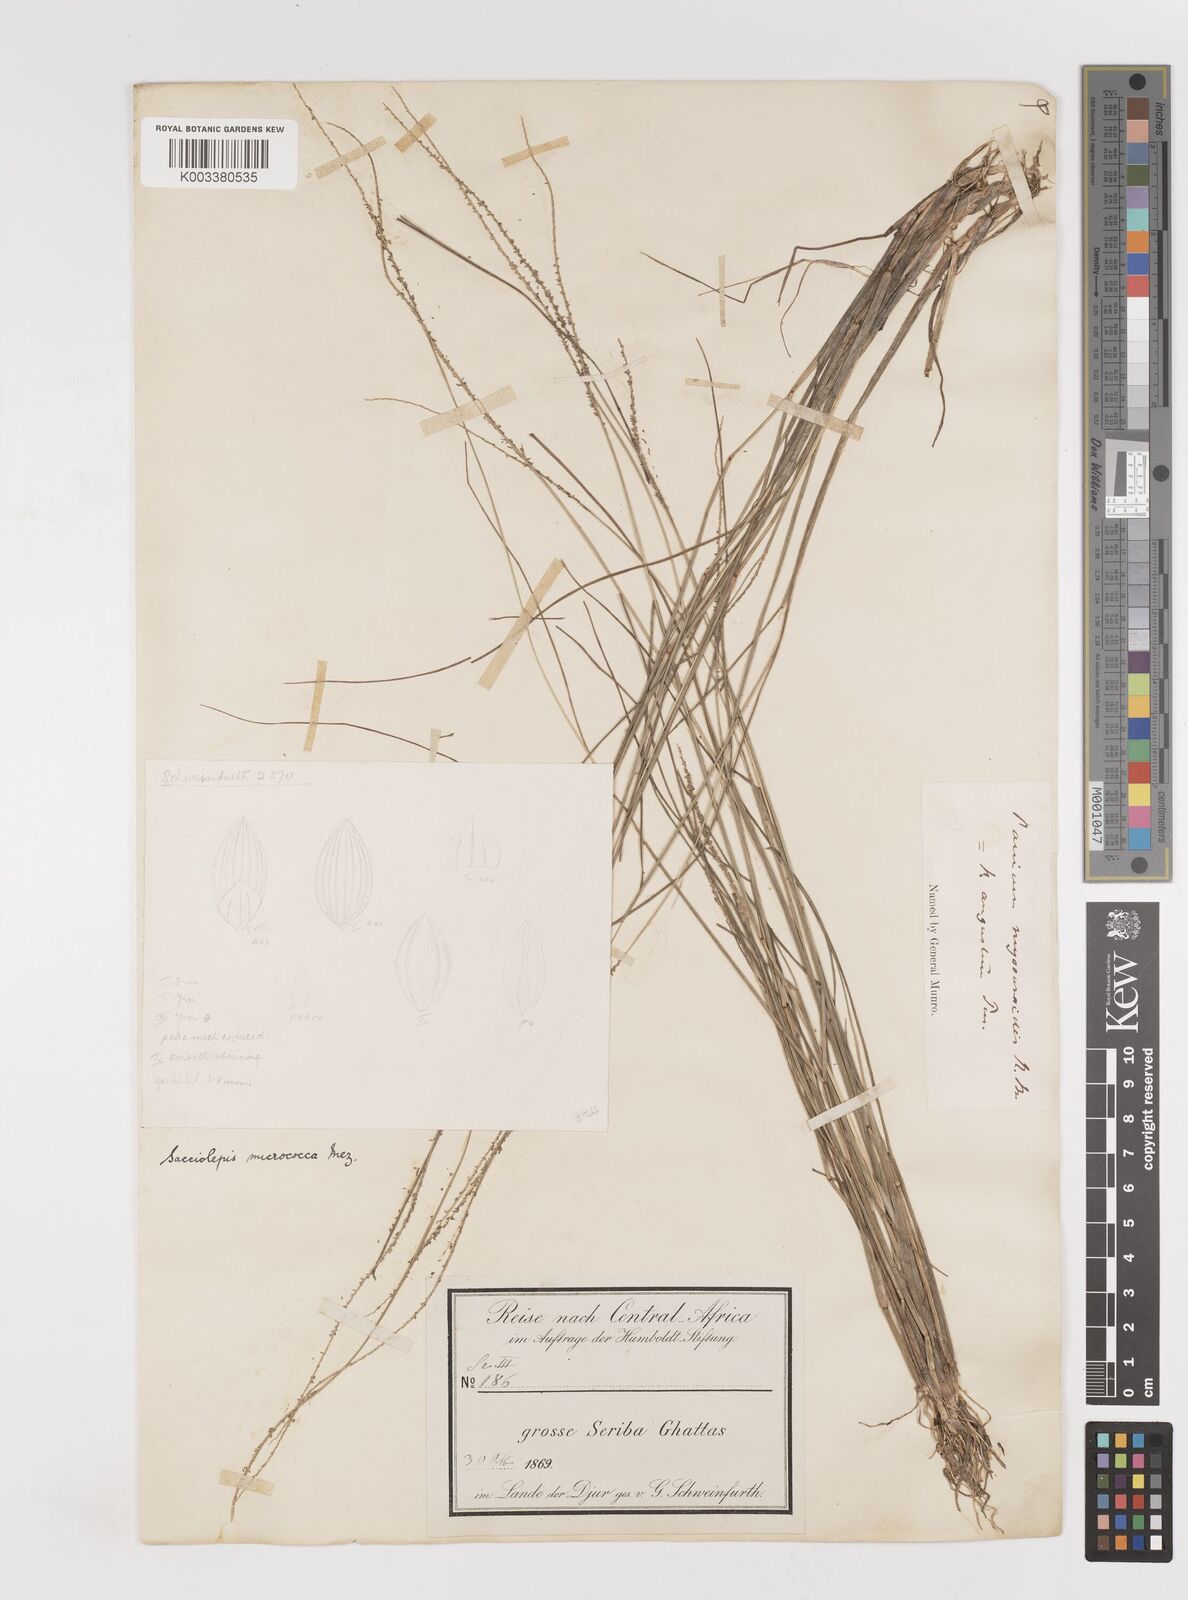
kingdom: Plantae
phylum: Tracheophyta
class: Liliopsida
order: Poales
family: Poaceae
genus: Sacciolepis
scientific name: Sacciolepis micrococca
